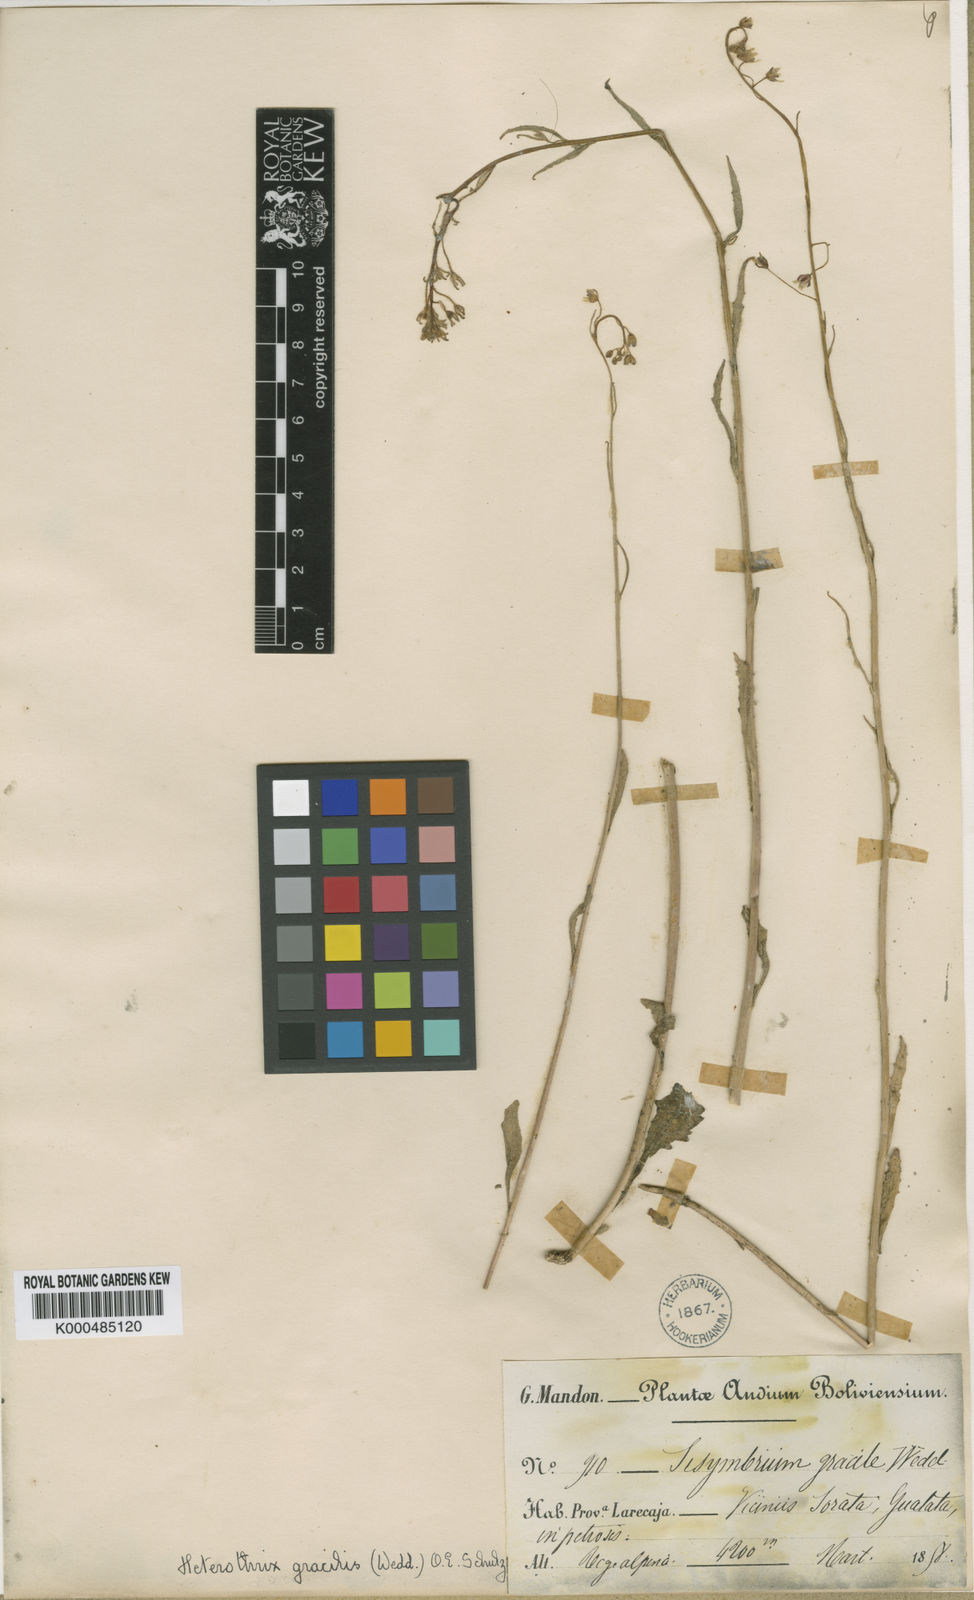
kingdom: Plantae
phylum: Tracheophyta
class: Magnoliopsida
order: Brassicales
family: Brassicaceae
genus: Mostacillastrum
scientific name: Mostacillastrum gracile
